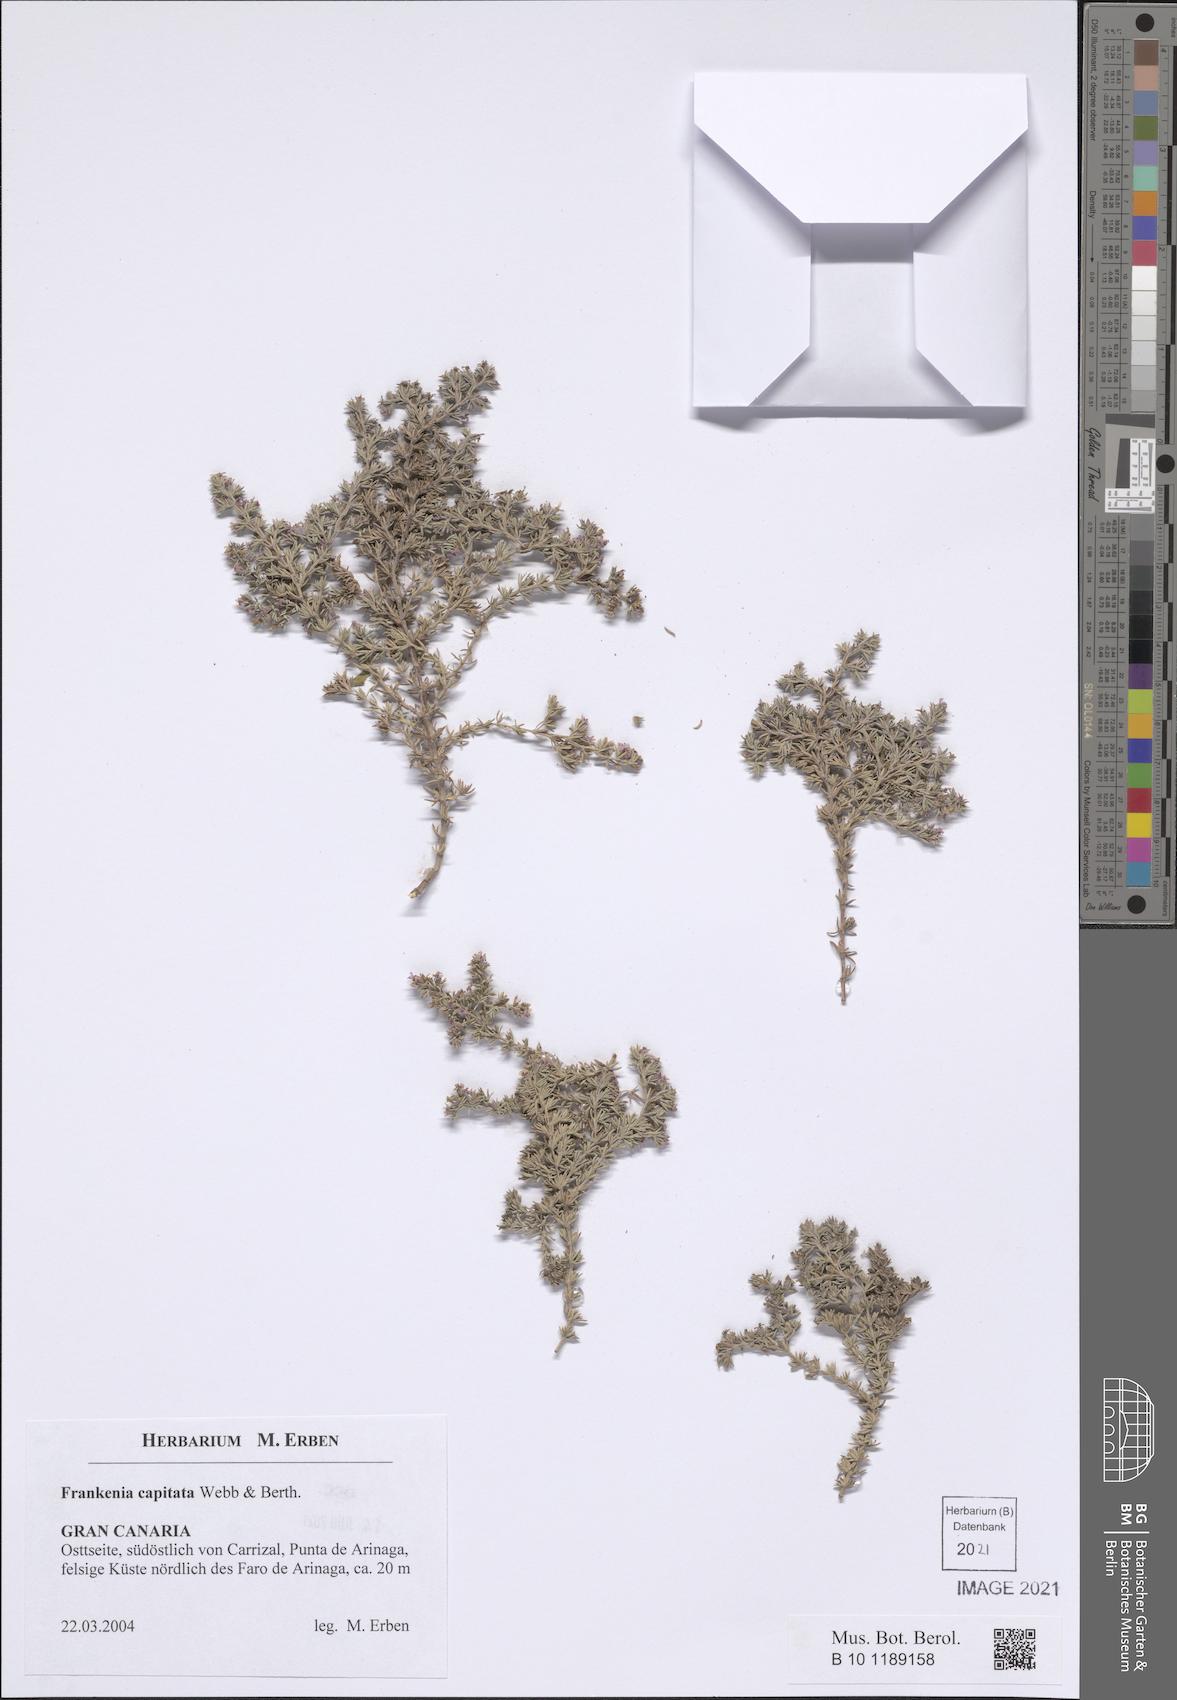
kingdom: Plantae
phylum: Tracheophyta
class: Magnoliopsida
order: Caryophyllales
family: Frankeniaceae
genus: Frankenia
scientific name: Frankenia capitata
